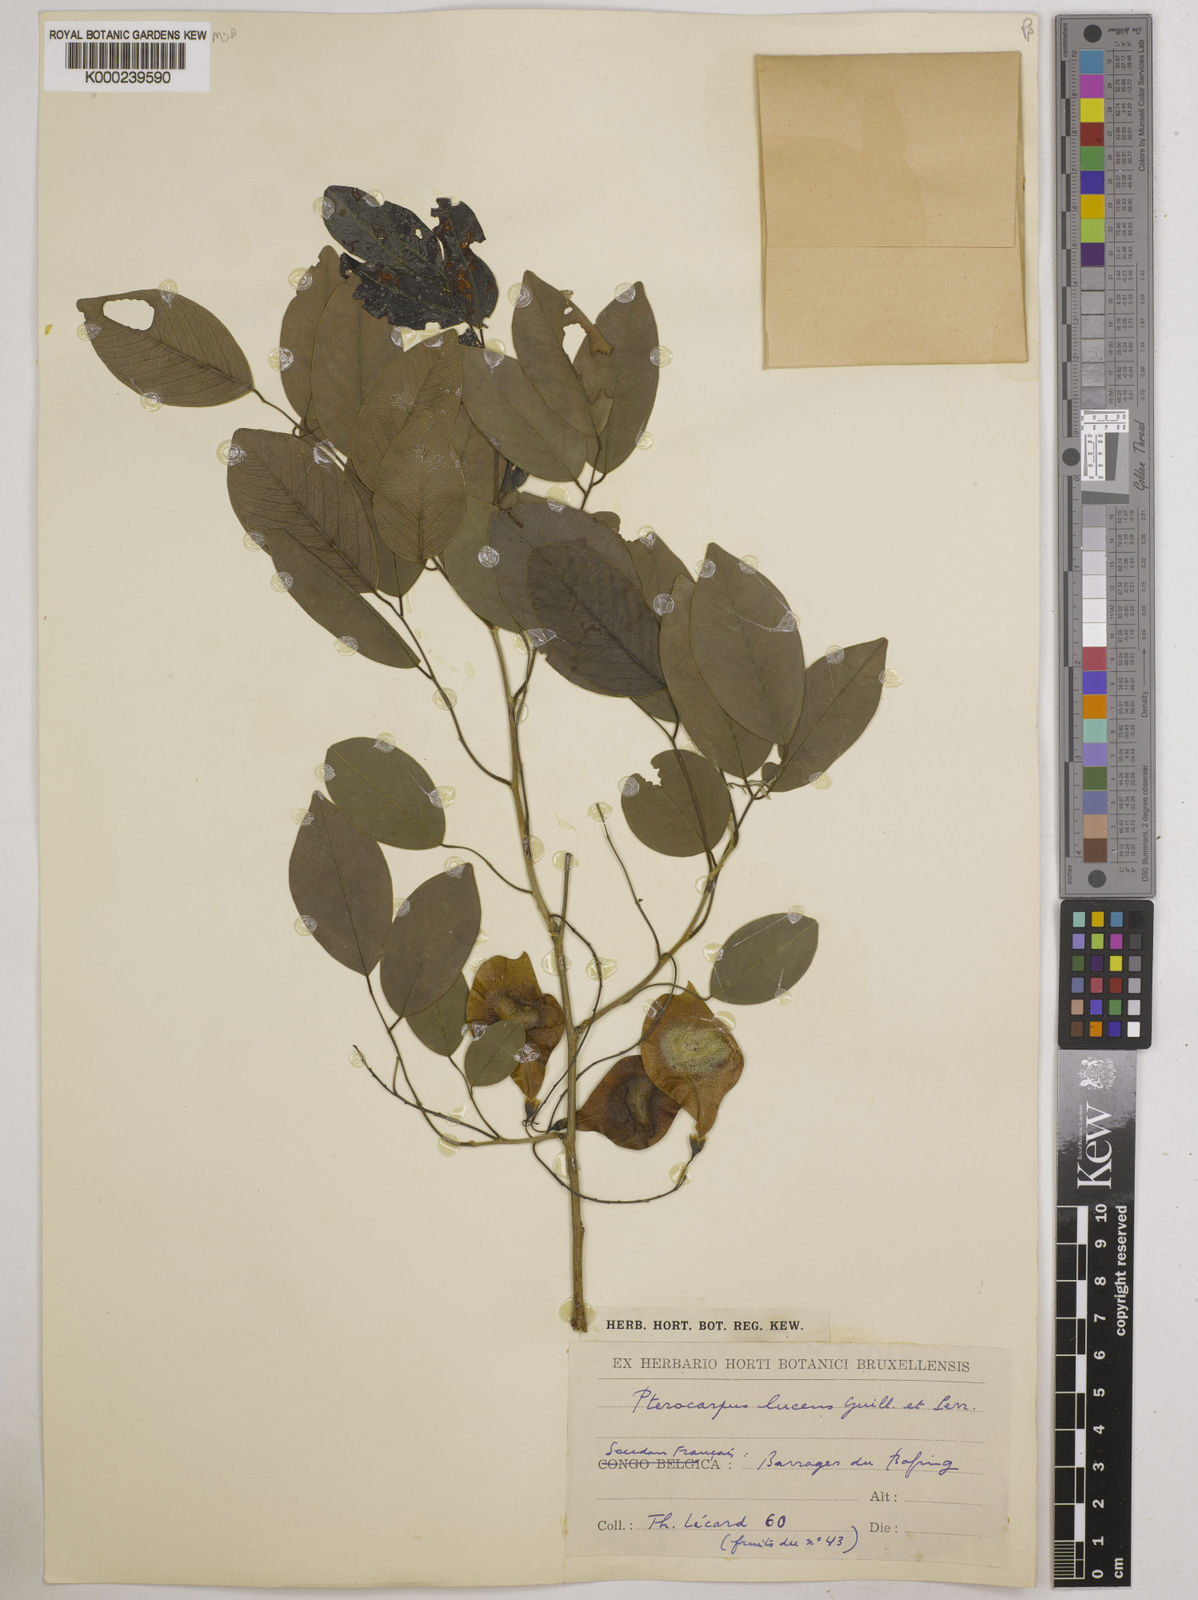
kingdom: Plantae
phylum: Tracheophyta
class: Magnoliopsida
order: Fabales
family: Fabaceae
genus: Pterocarpus
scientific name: Pterocarpus lucens
